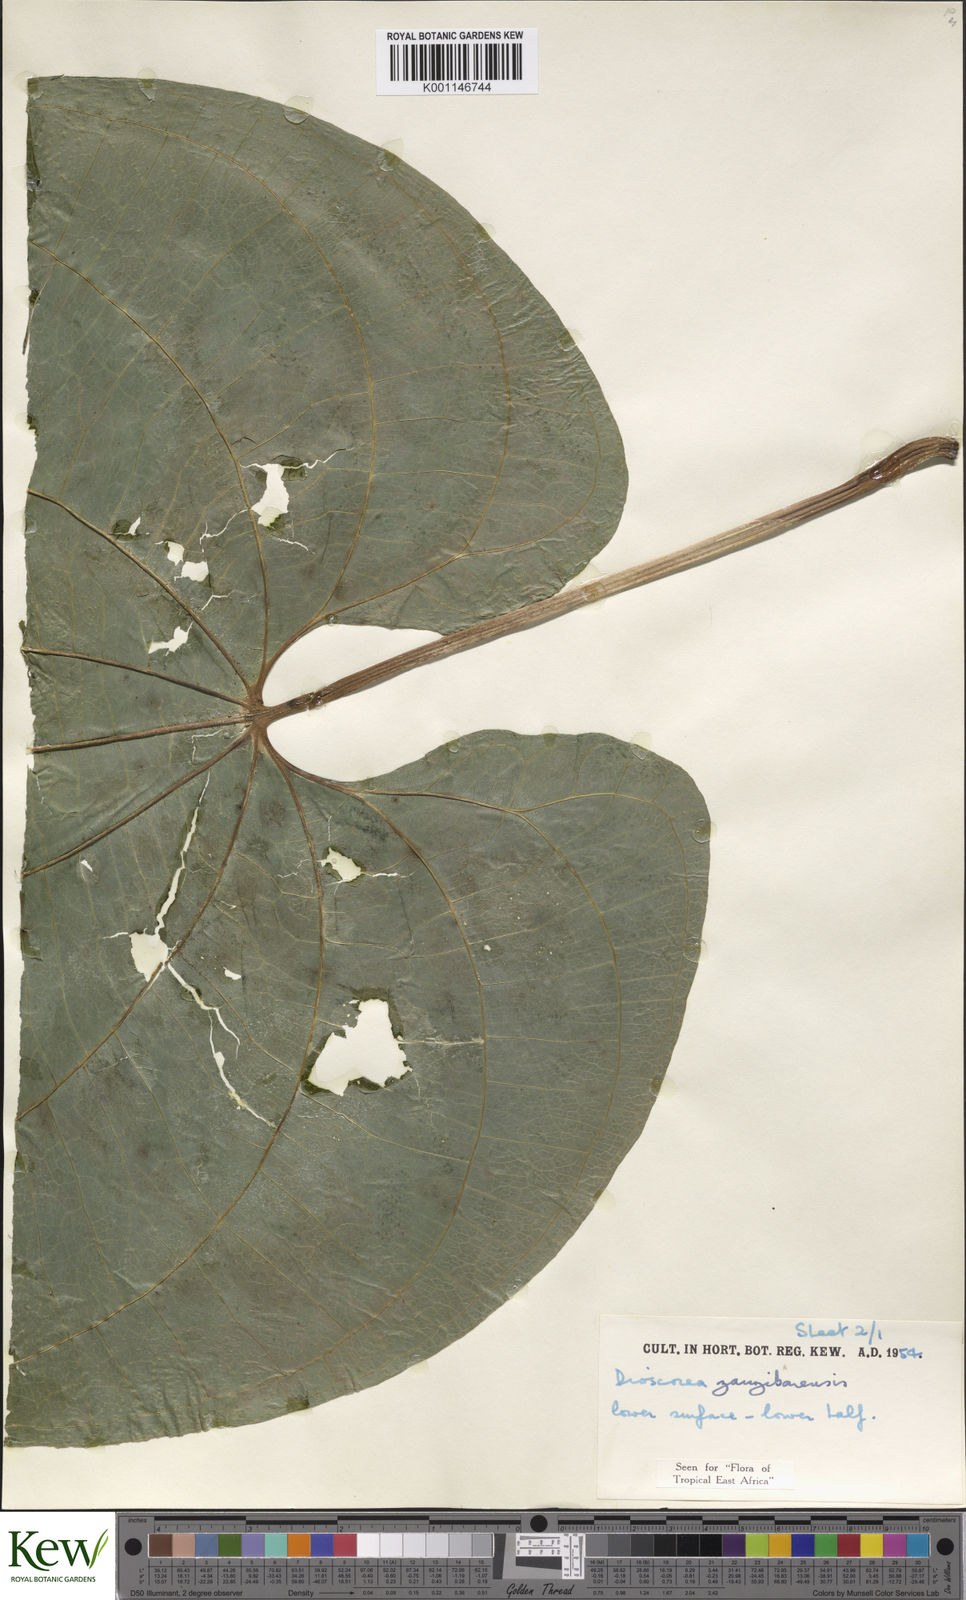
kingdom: Plantae
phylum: Tracheophyta
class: Liliopsida
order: Dioscoreales
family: Dioscoreaceae
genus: Dioscorea
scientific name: Dioscorea sansibarensis
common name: Zanzibar yam
